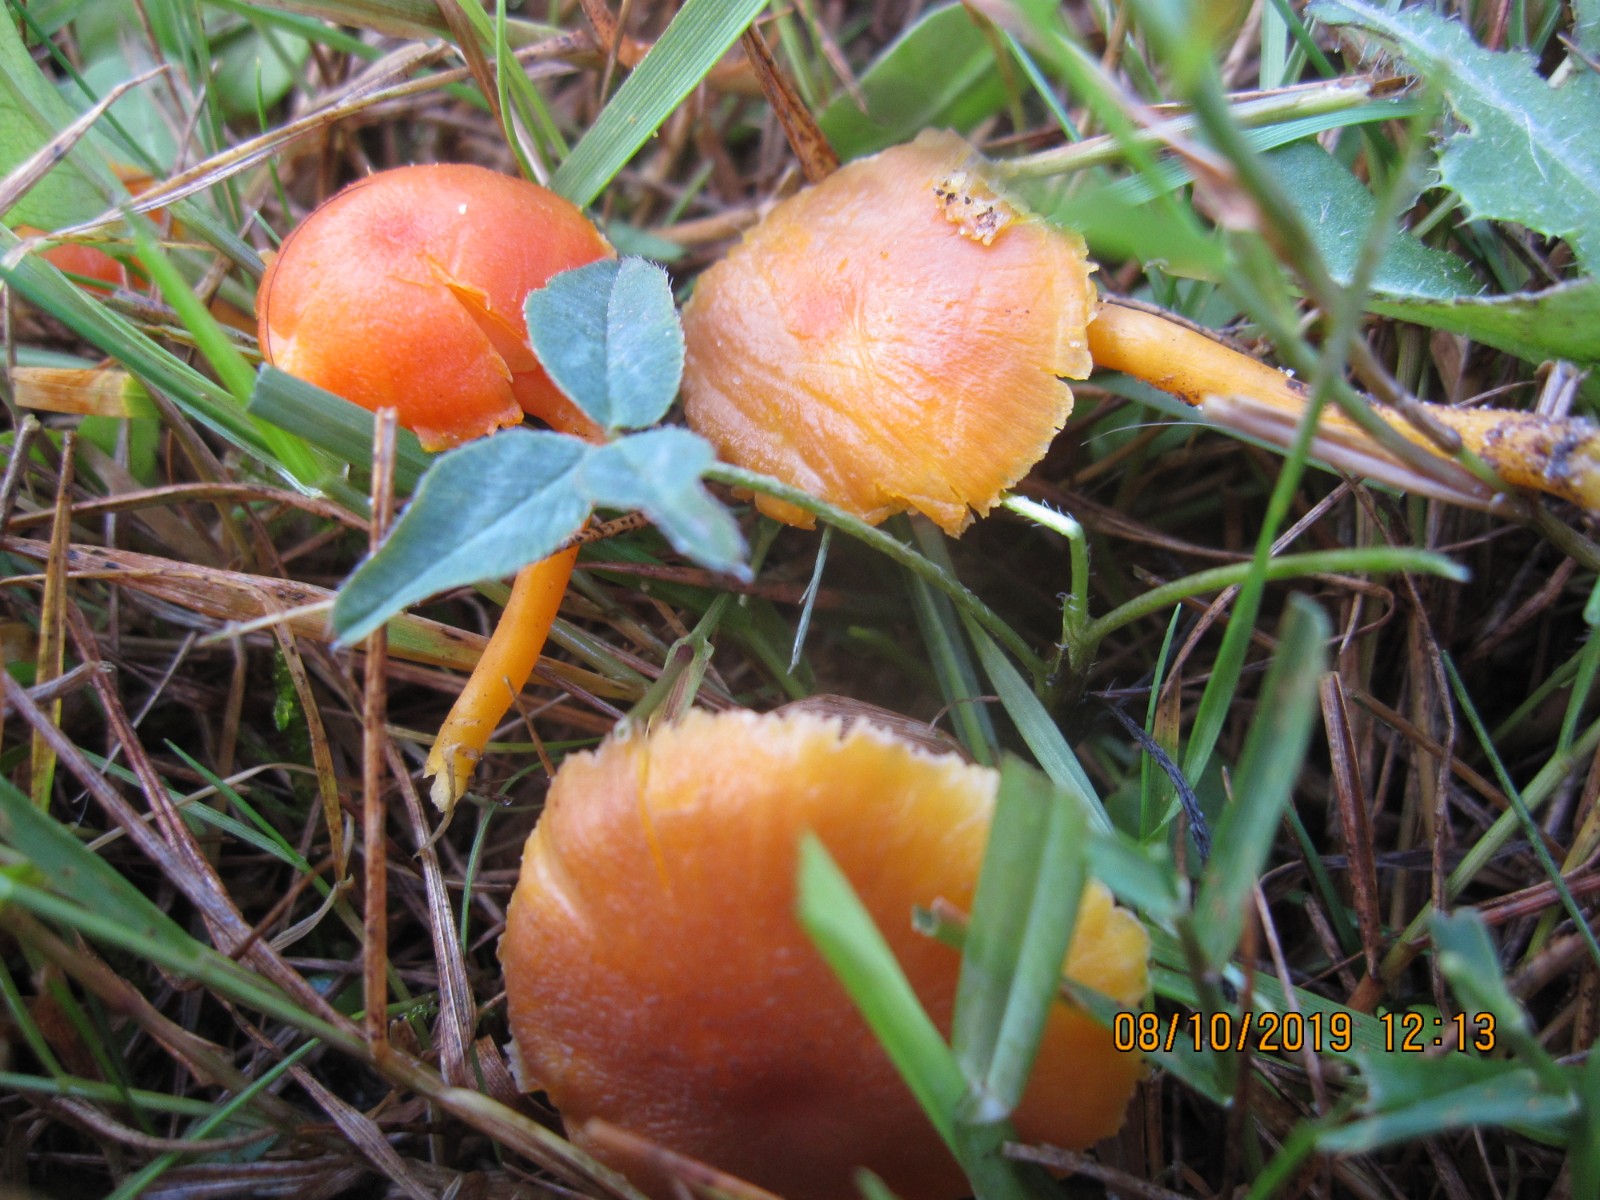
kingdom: Fungi
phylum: Basidiomycota
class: Agaricomycetes
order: Agaricales
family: Hygrophoraceae
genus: Hygrocybe
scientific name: Hygrocybe miniata
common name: mønje-vokshat
